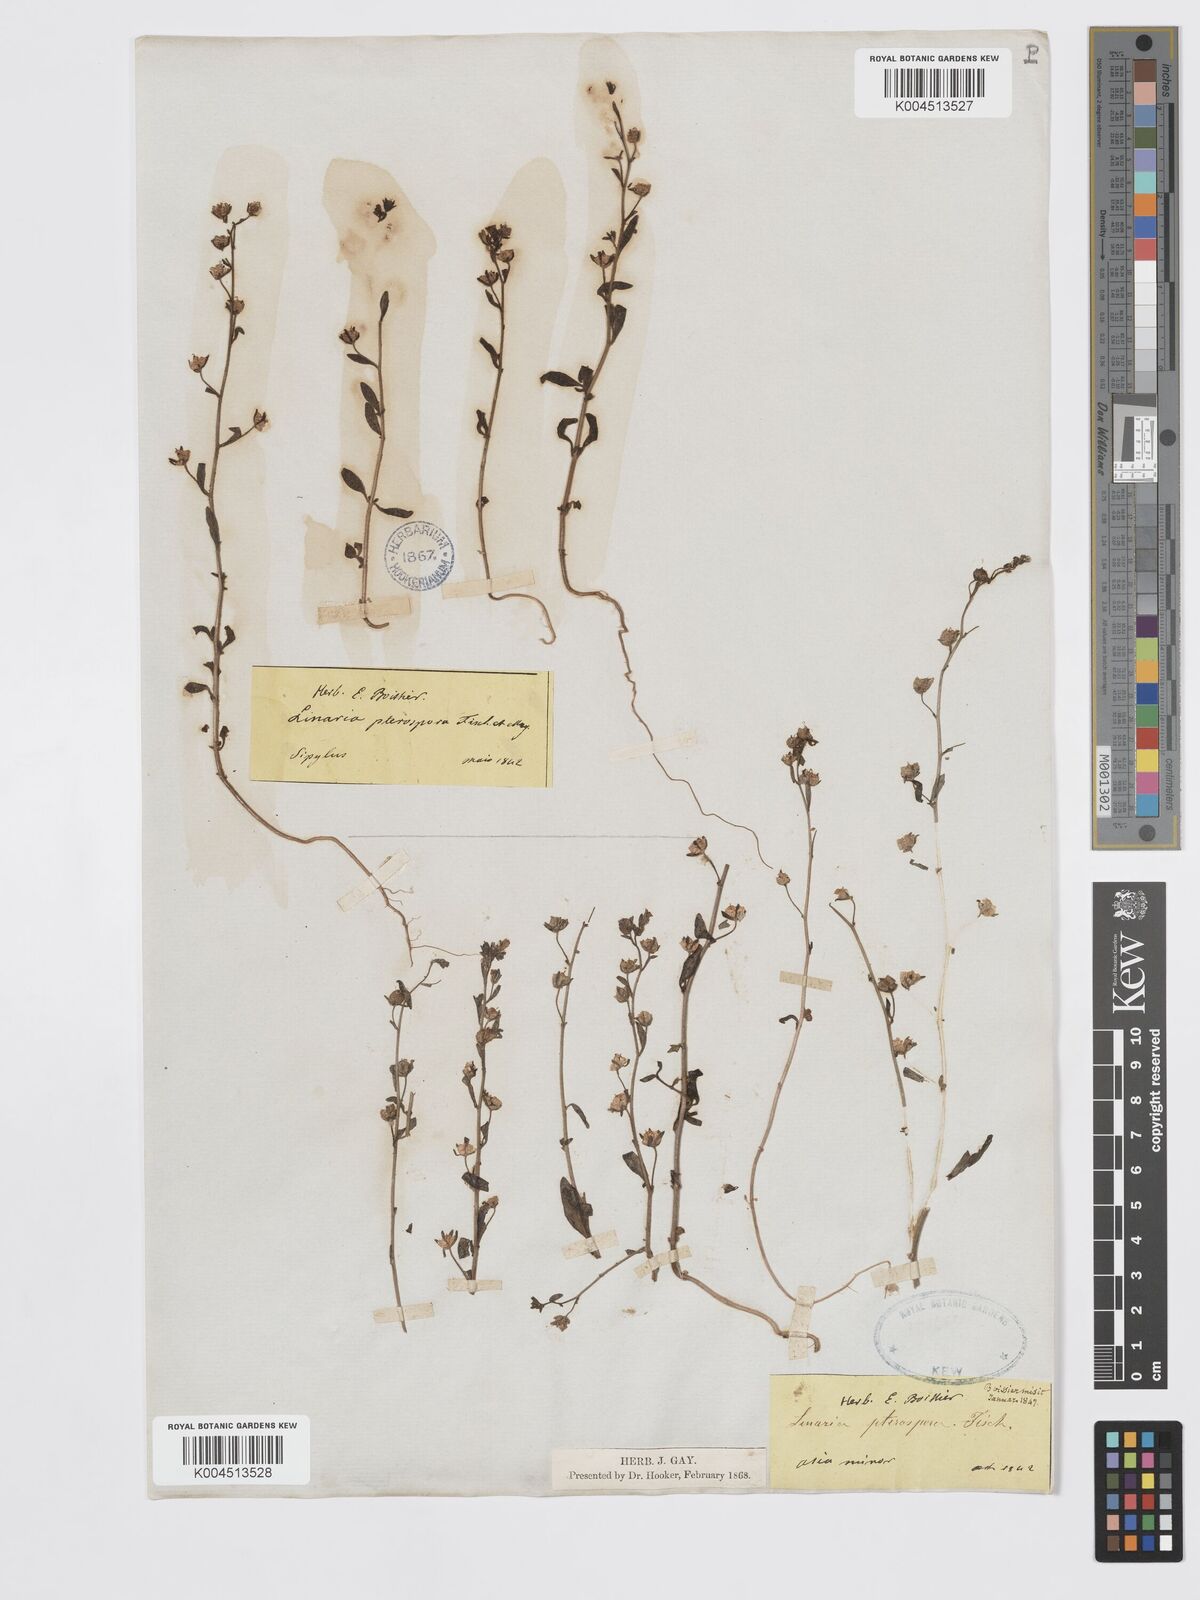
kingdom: Plantae
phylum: Tracheophyta
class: Magnoliopsida
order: Lamiales
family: Plantaginaceae
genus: Chaenorhinum
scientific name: Chaenorhinum litorale
